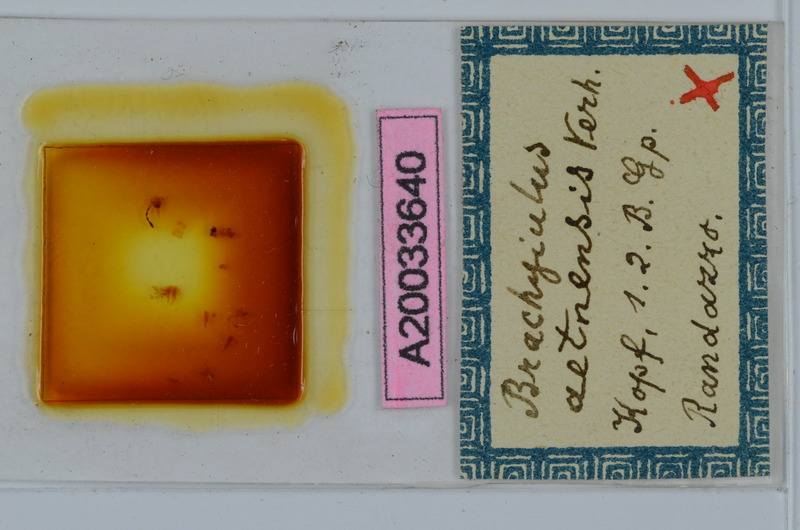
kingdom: Animalia
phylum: Arthropoda
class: Diplopoda
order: Julida
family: Julidae
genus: Italoiulus
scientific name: Italoiulus margaritatus
